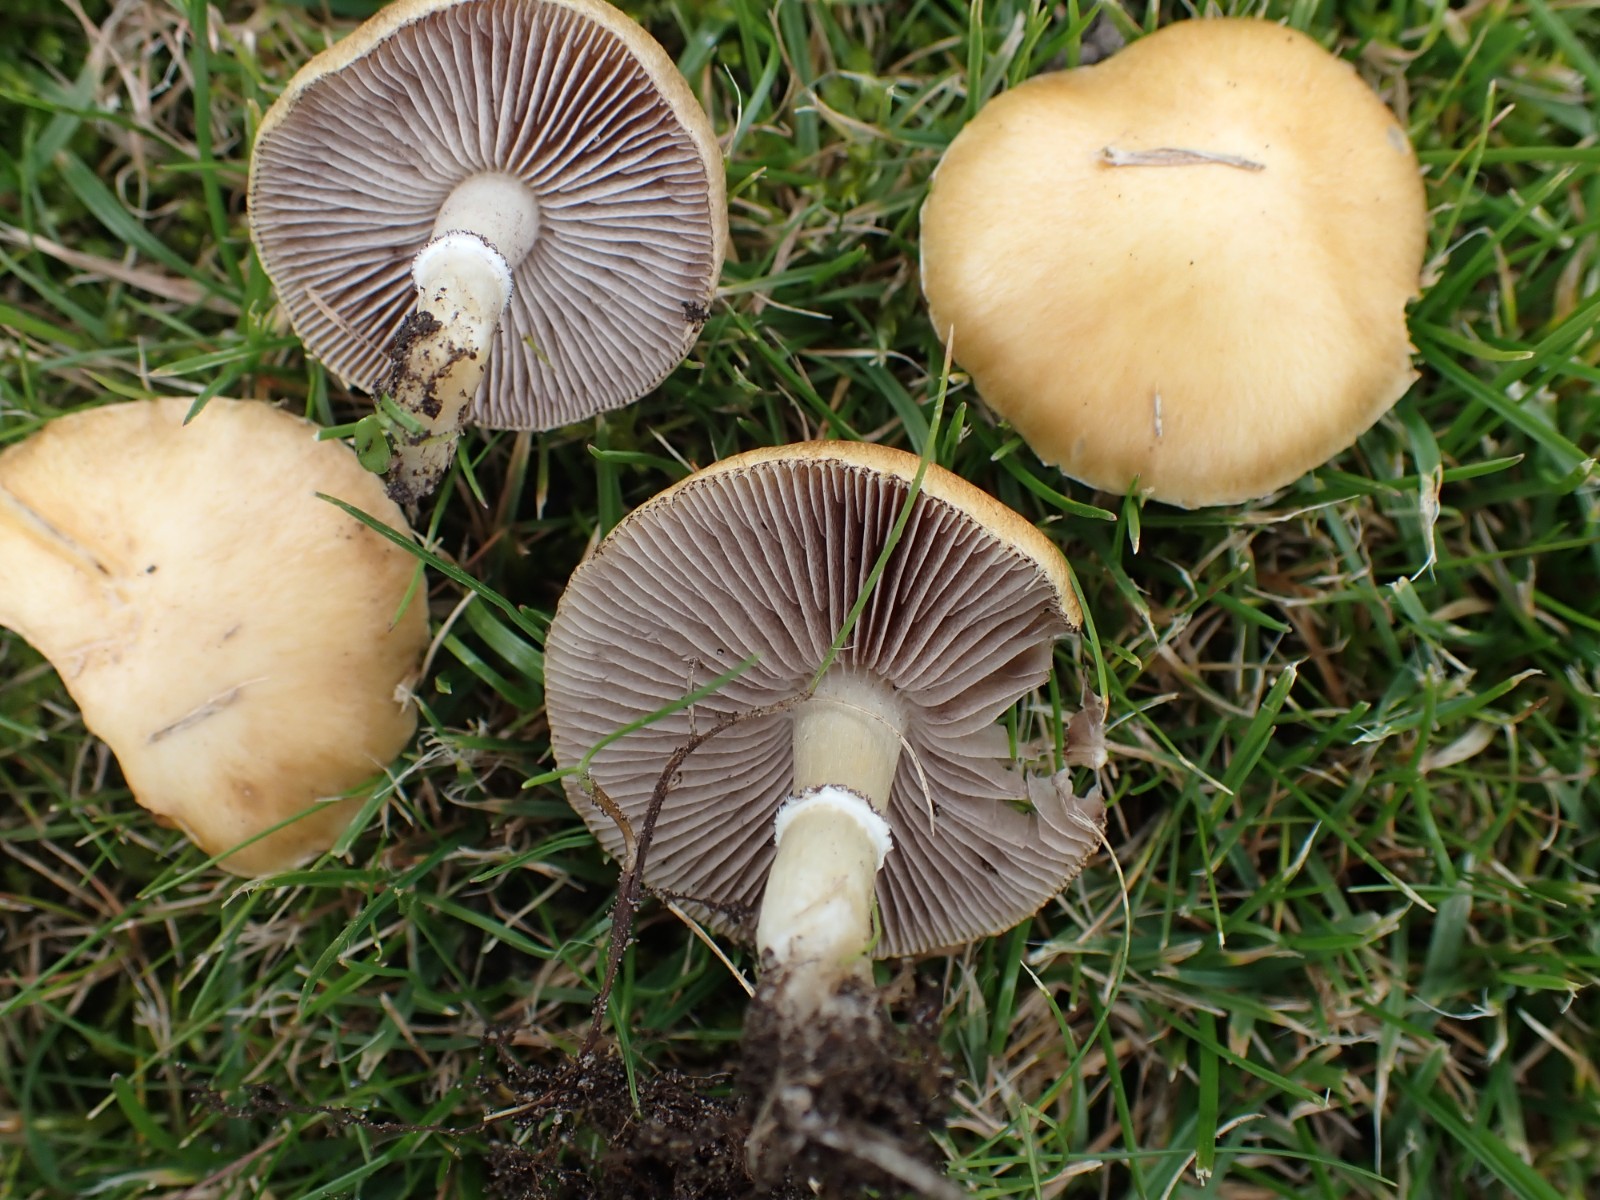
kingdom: Fungi
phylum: Basidiomycota
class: Agaricomycetes
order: Agaricales
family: Hymenogastraceae
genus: Psilocybe
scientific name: Psilocybe coronilla
